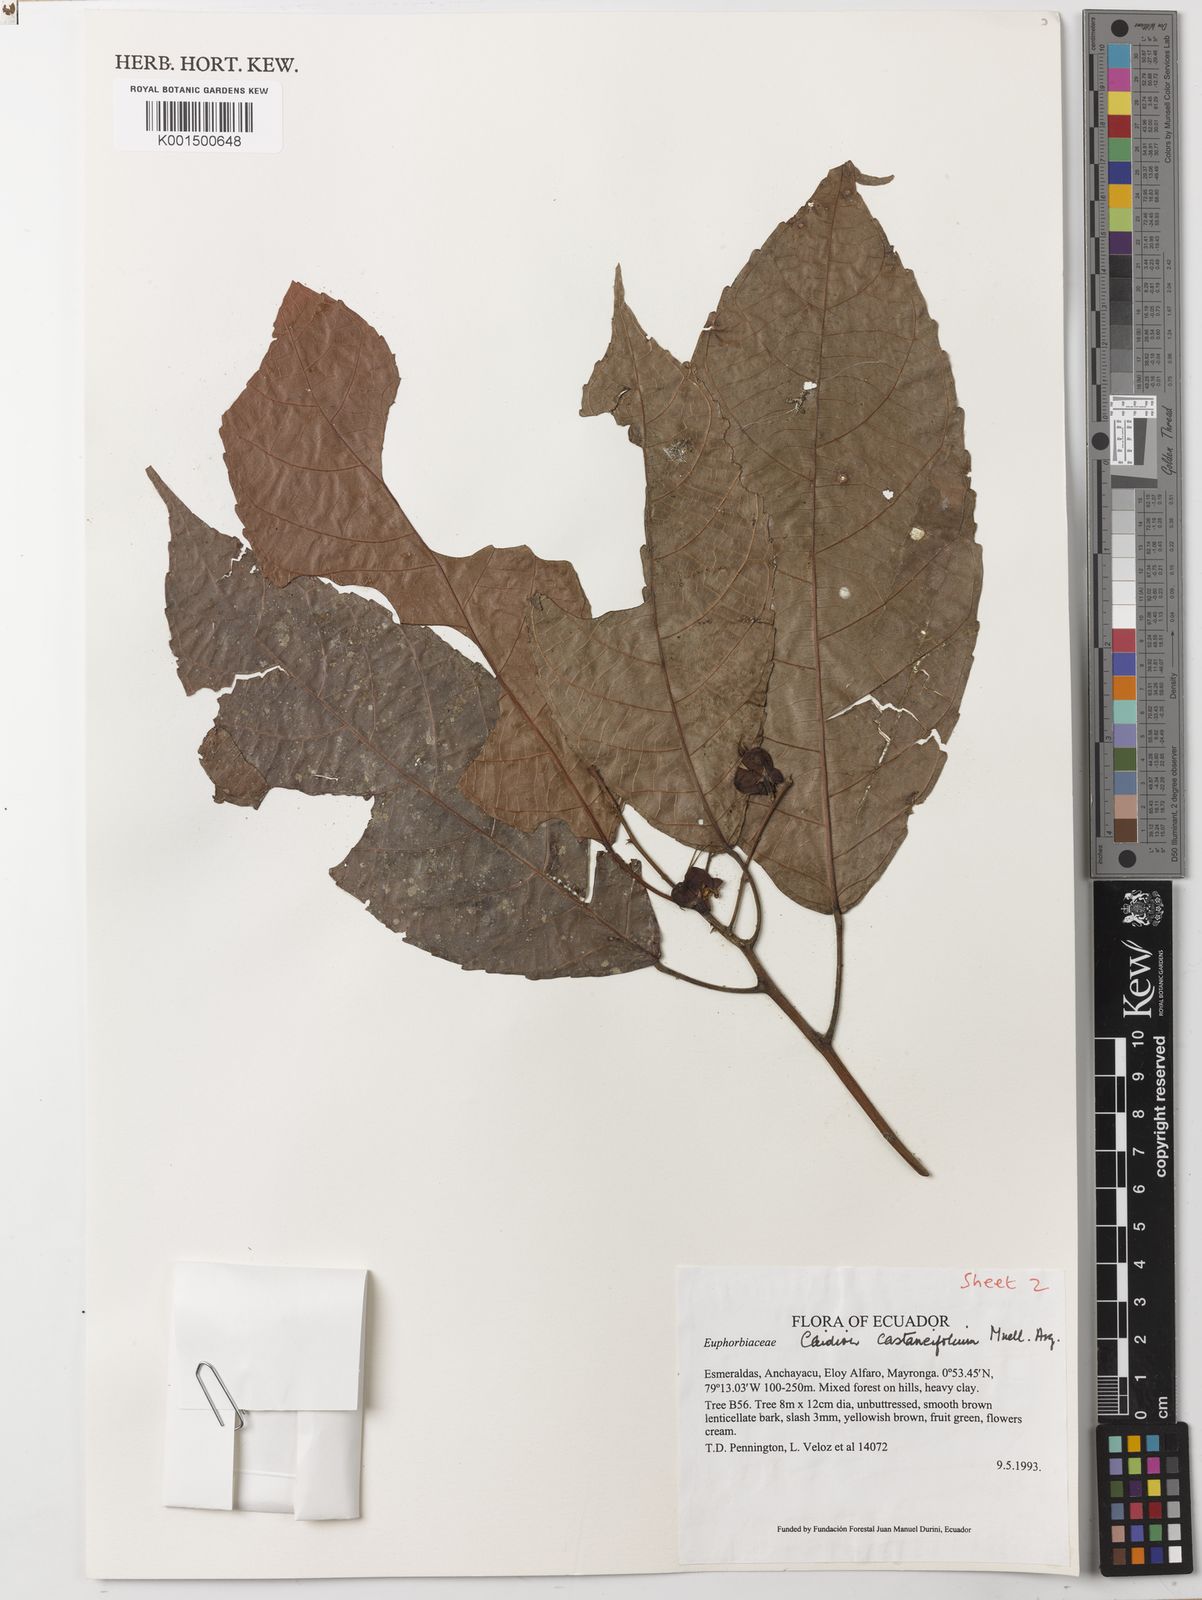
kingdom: Plantae
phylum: Tracheophyta
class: Magnoliopsida
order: Malpighiales
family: Euphorbiaceae
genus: Cleidion
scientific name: Cleidion castaneifolium
